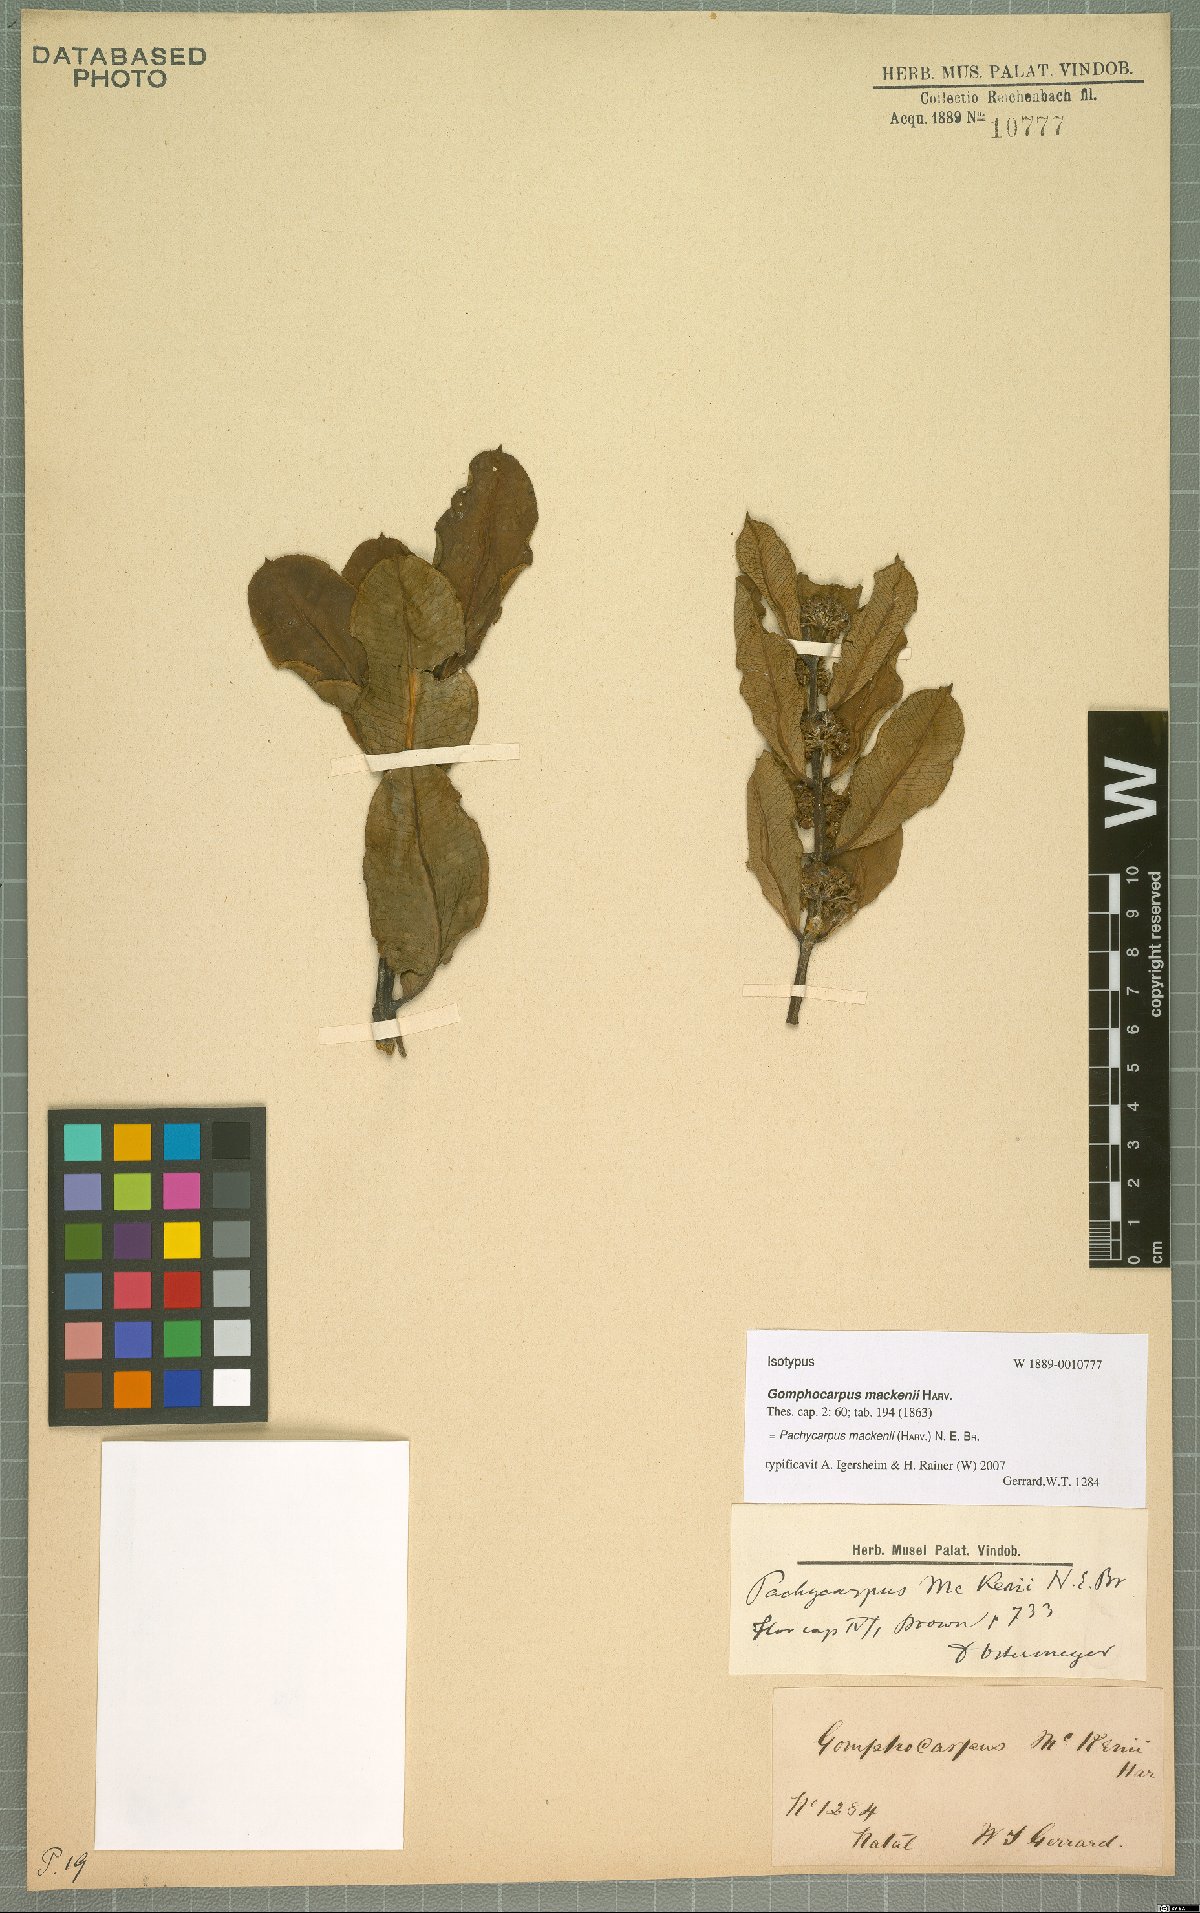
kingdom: Plantae
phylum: Tracheophyta
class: Magnoliopsida
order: Gentianales
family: Apocynaceae
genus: Pachycarpus
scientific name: Pachycarpus mackenii
